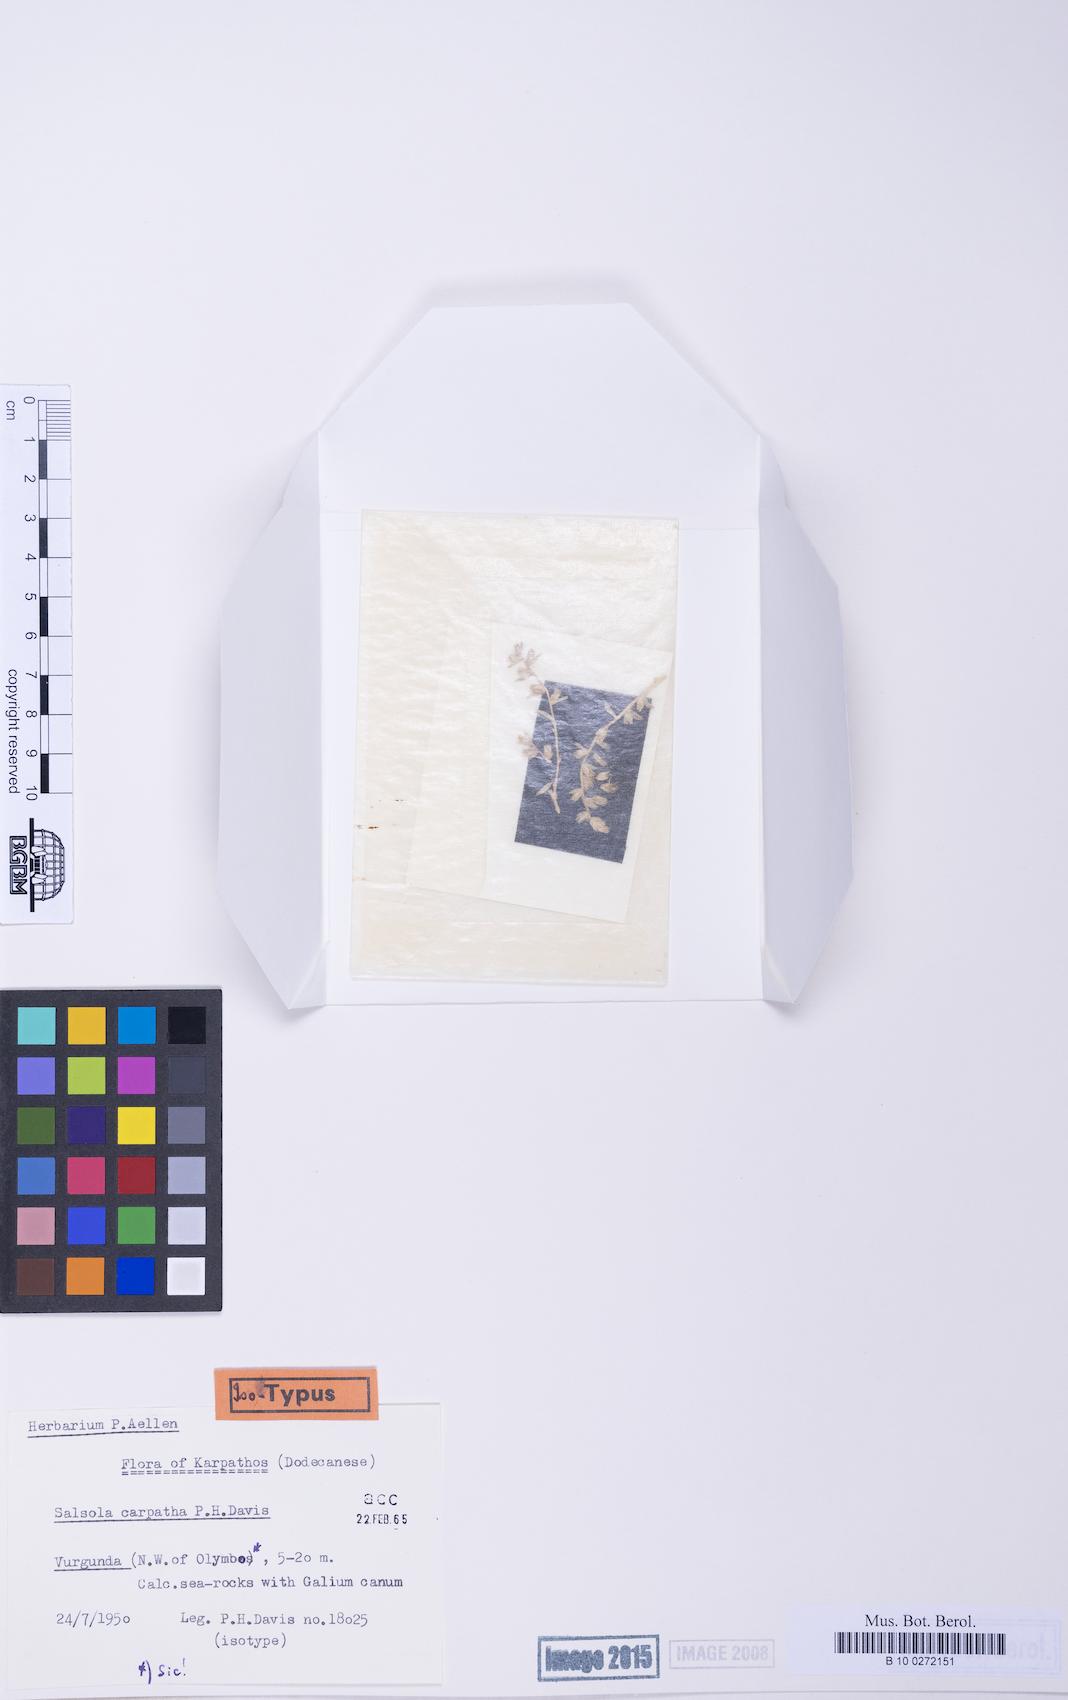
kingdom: Plantae
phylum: Tracheophyta
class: Magnoliopsida
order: Caryophyllales
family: Amaranthaceae
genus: Akhania
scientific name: Akhania carpatha
